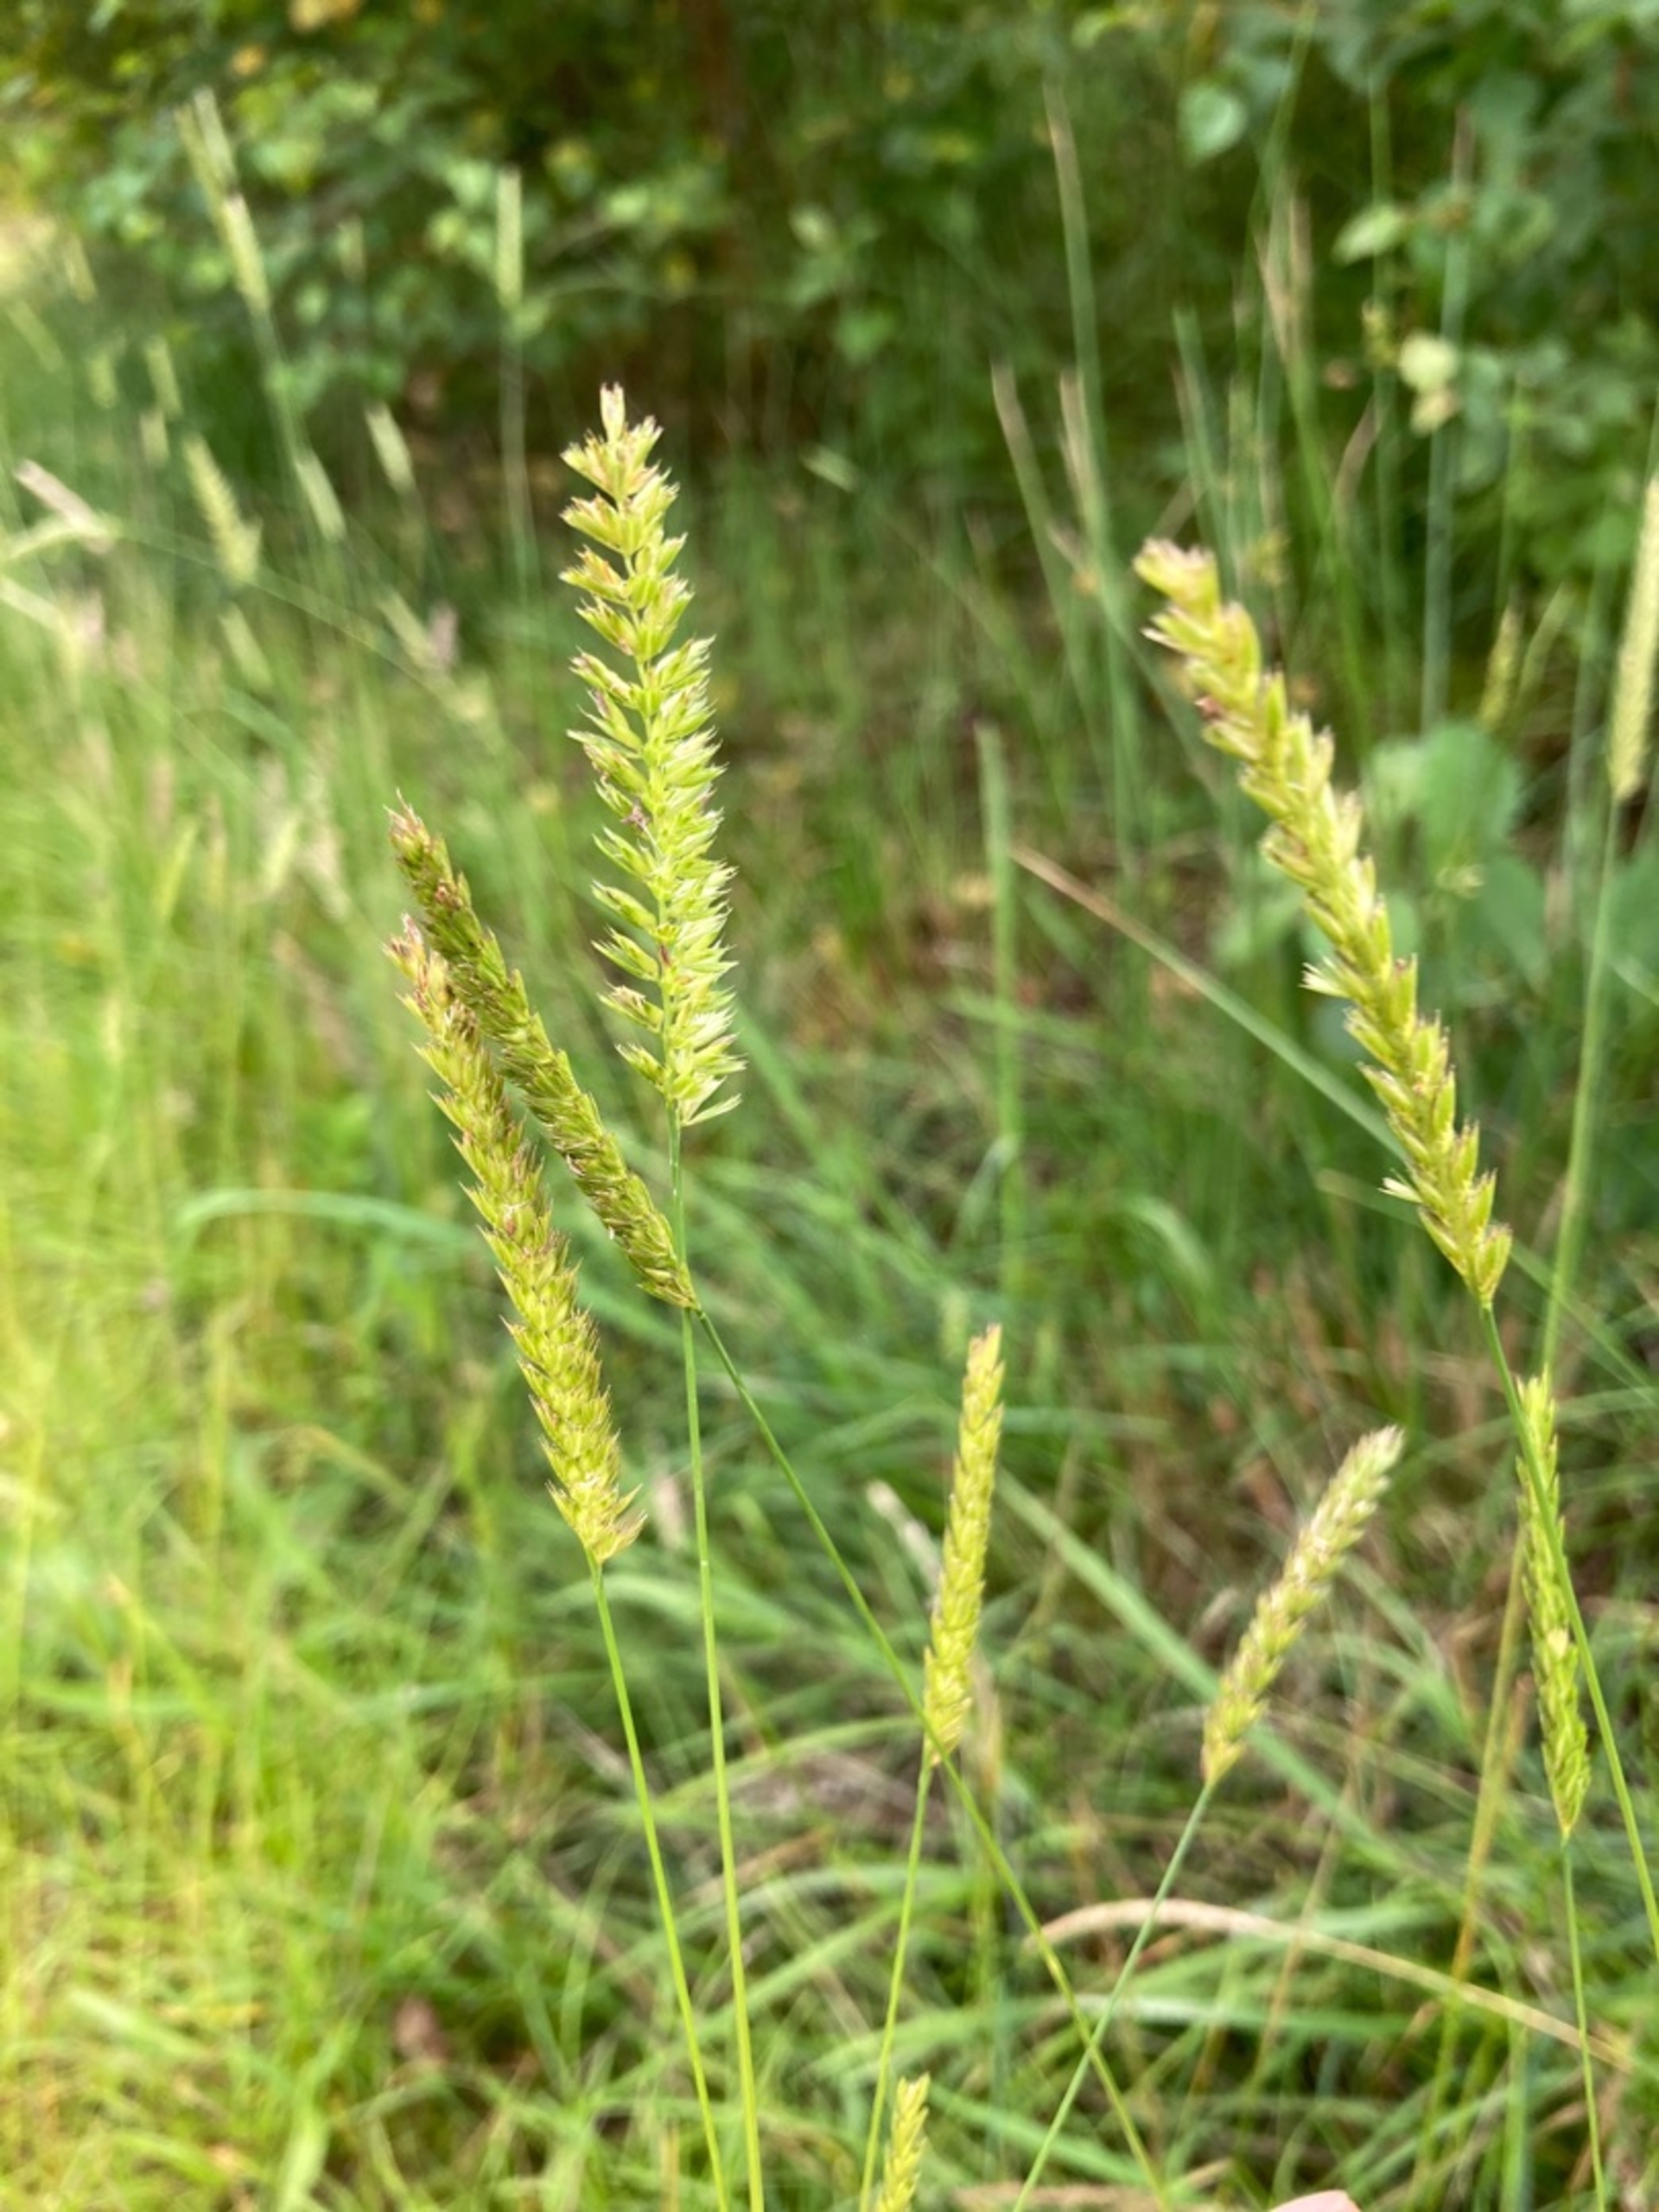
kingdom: Plantae
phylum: Tracheophyta
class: Liliopsida
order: Poales
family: Poaceae
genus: Cynosurus
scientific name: Cynosurus cristatus
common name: Kamgræs
